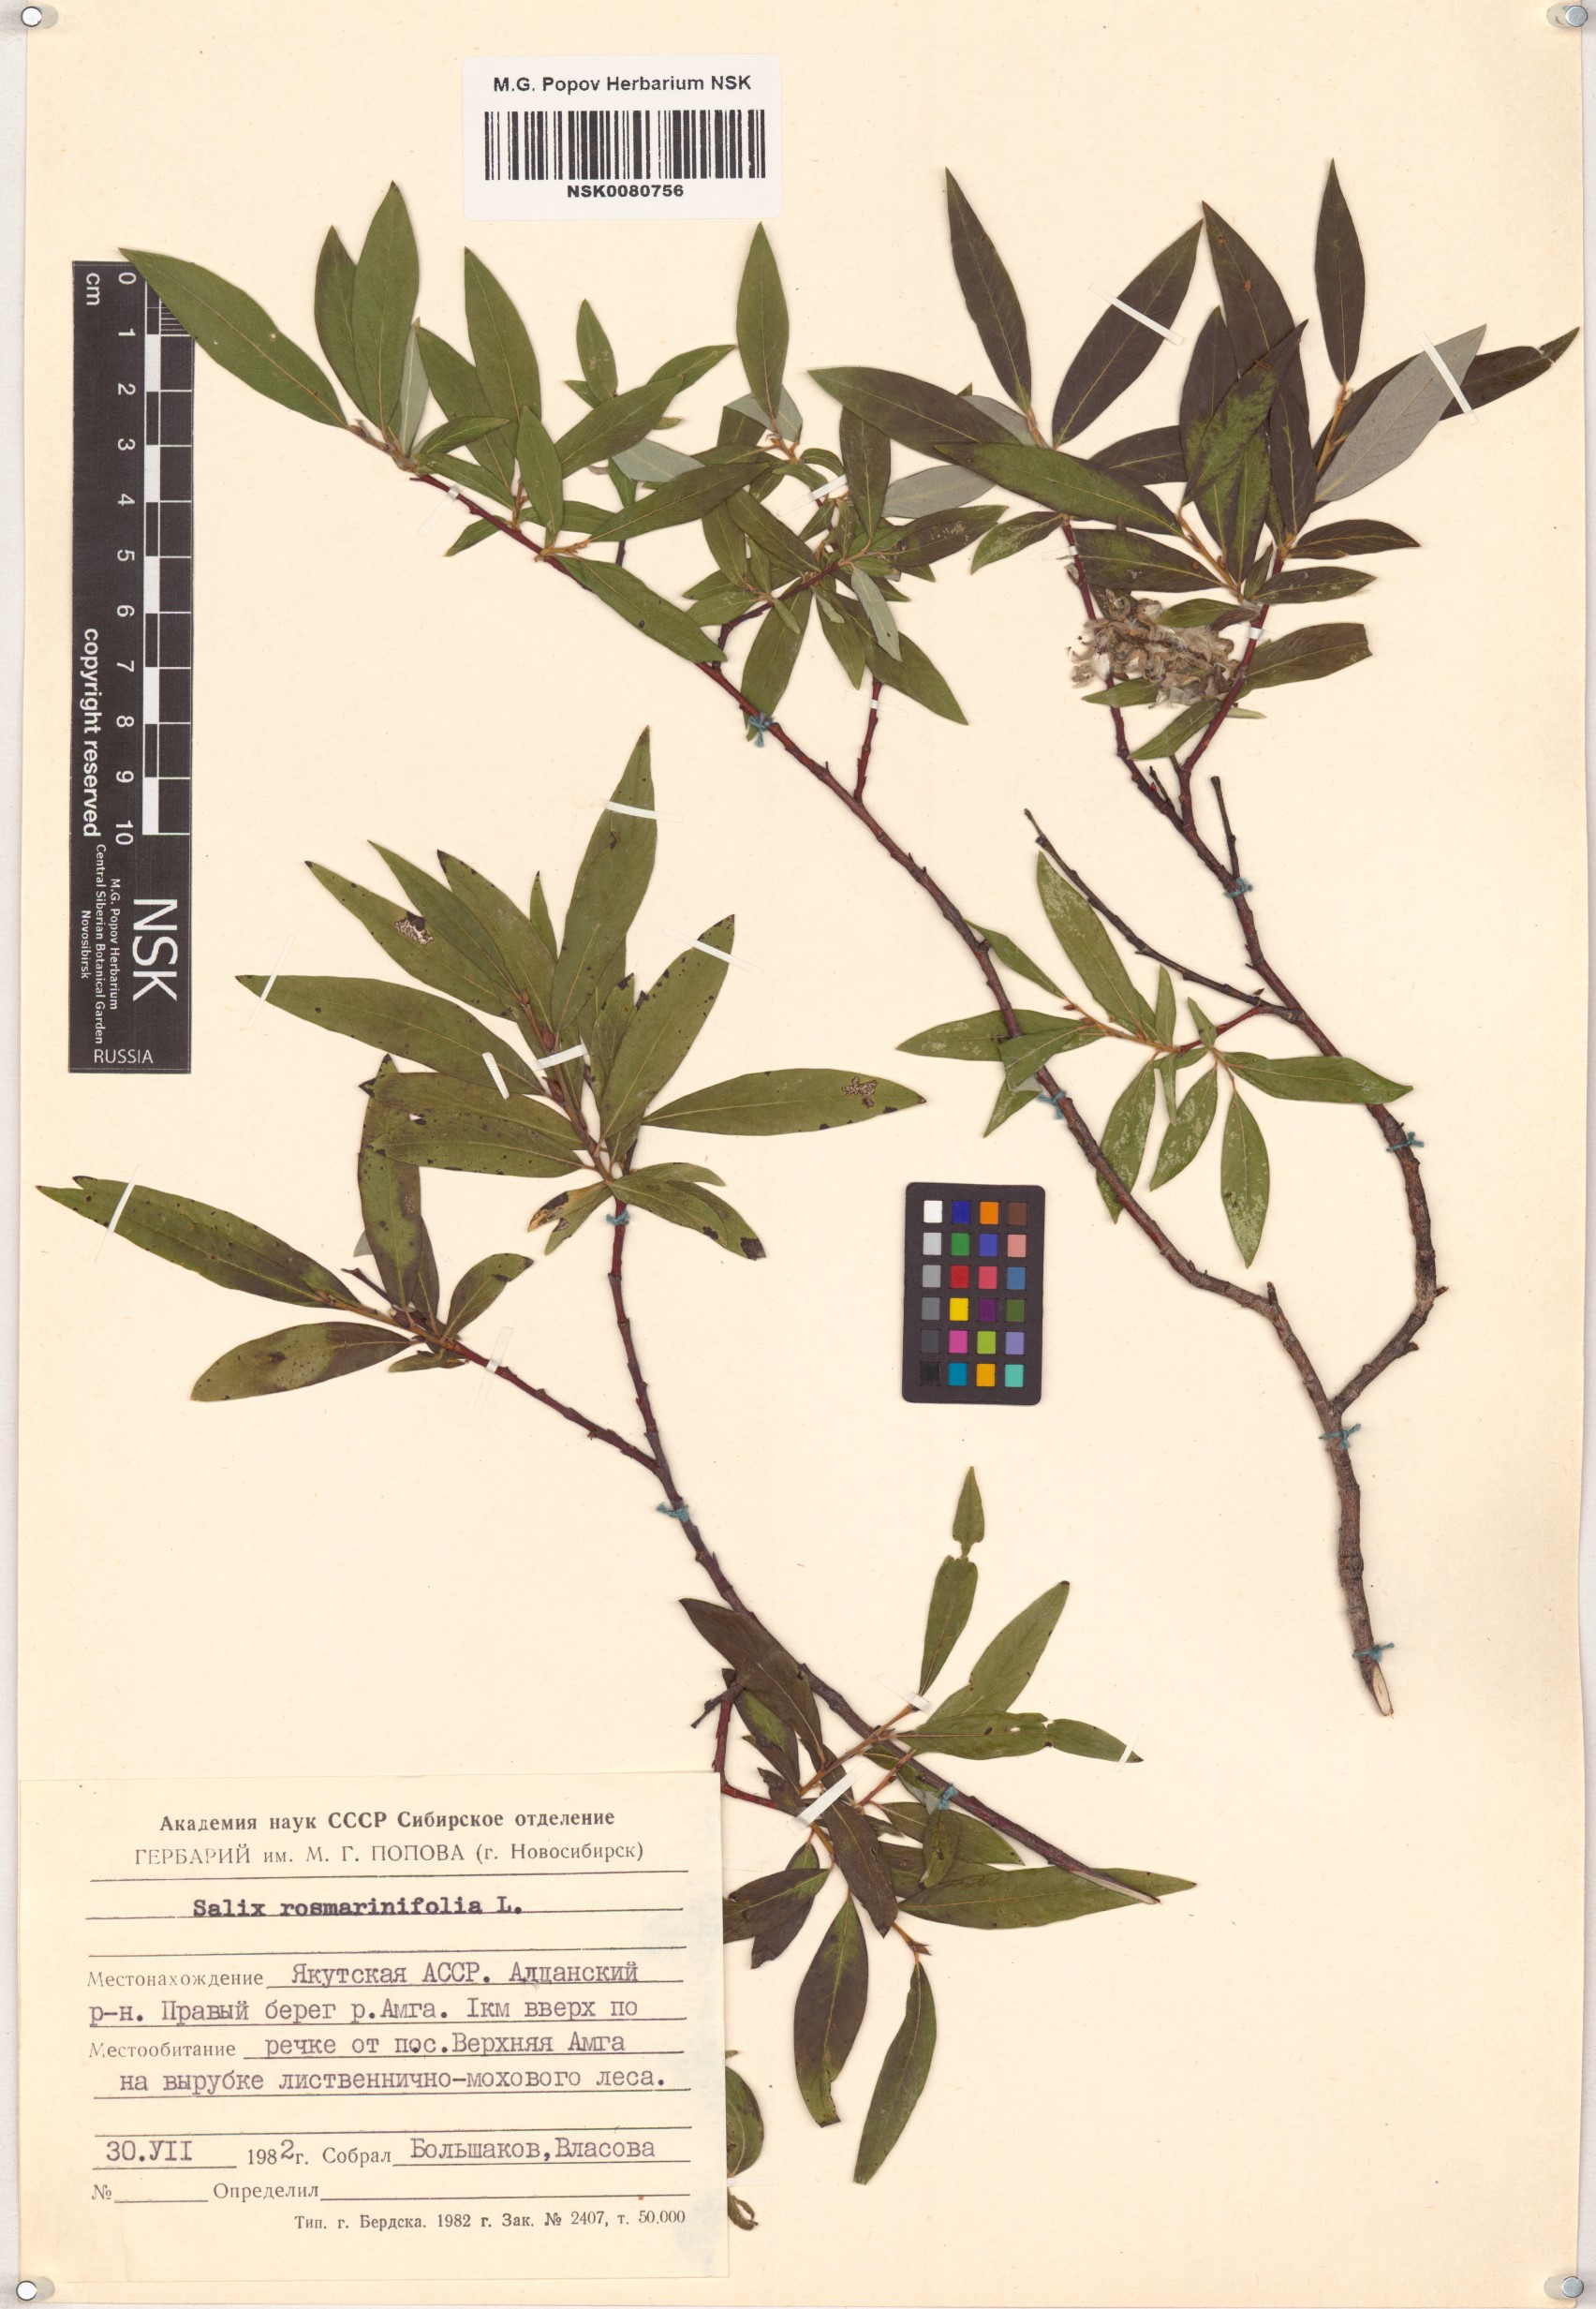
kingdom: Plantae
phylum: Tracheophyta
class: Magnoliopsida
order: Malpighiales
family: Salicaceae
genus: Salix
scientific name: Salix rosmarinifolia
